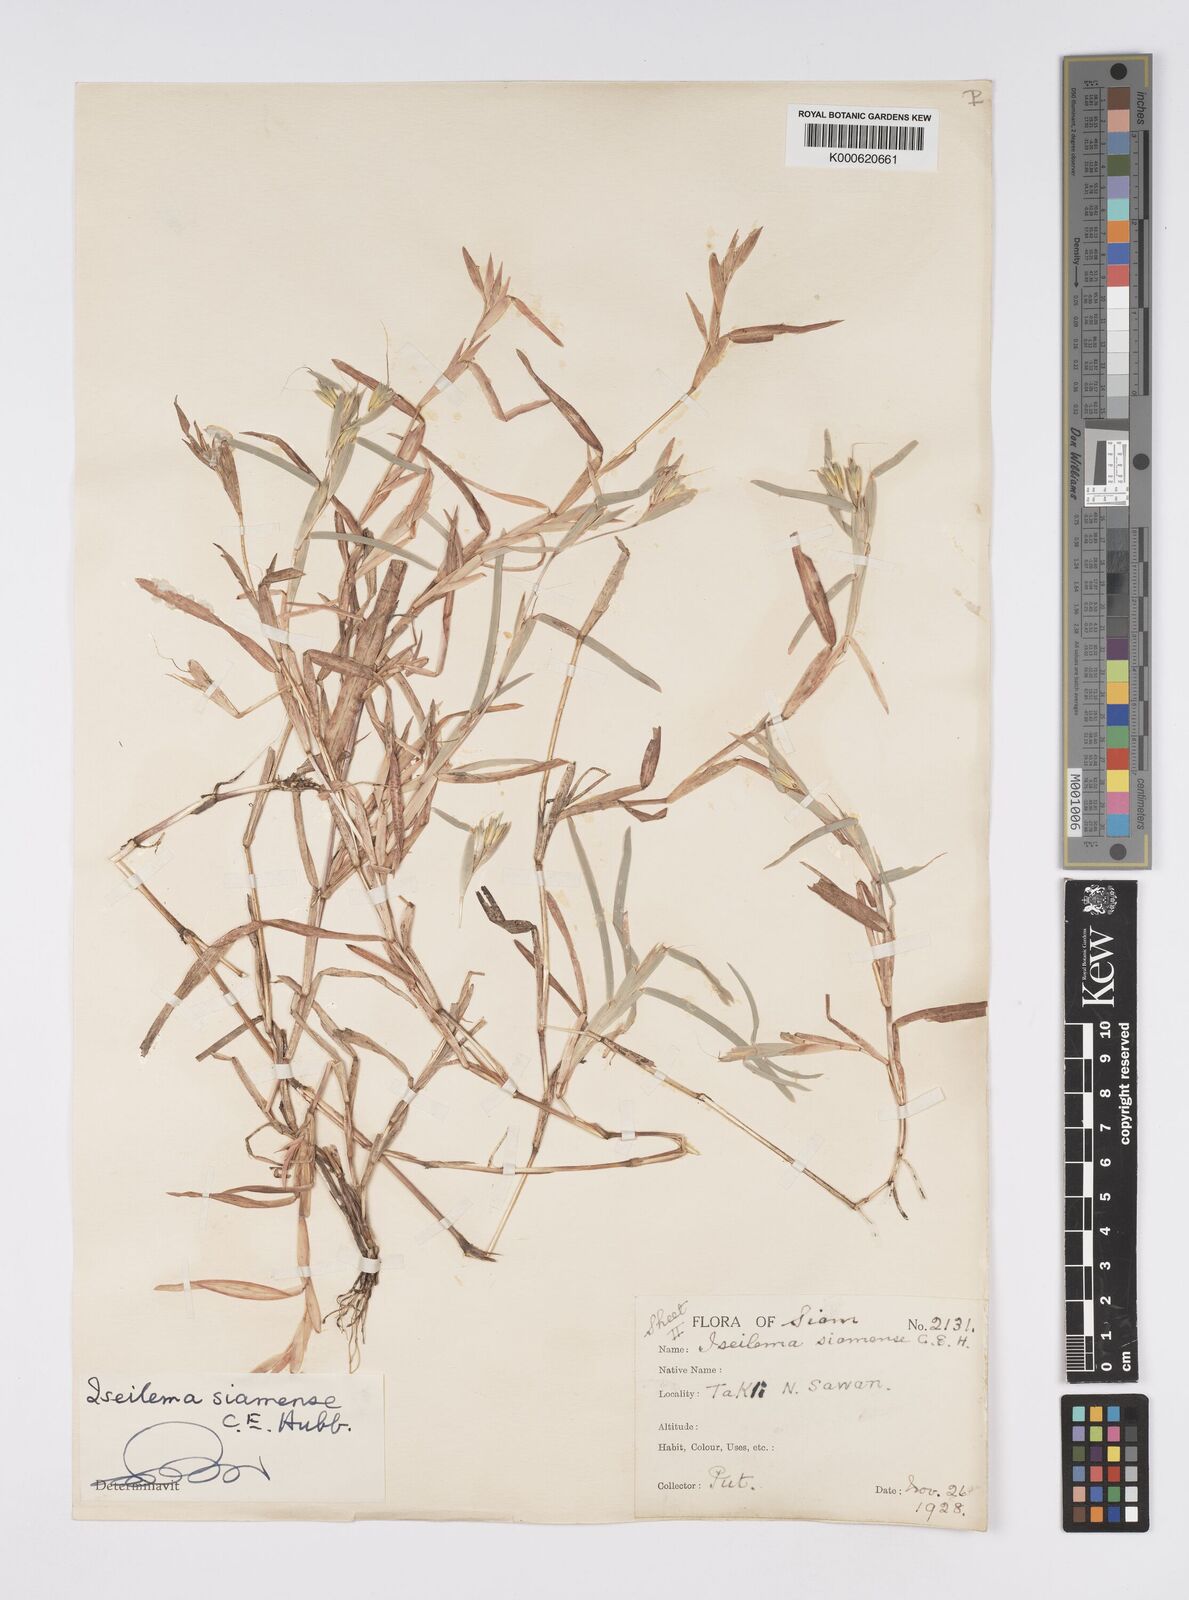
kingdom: Plantae
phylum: Tracheophyta
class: Liliopsida
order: Poales
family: Poaceae
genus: Iseilema
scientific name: Iseilema siamense
